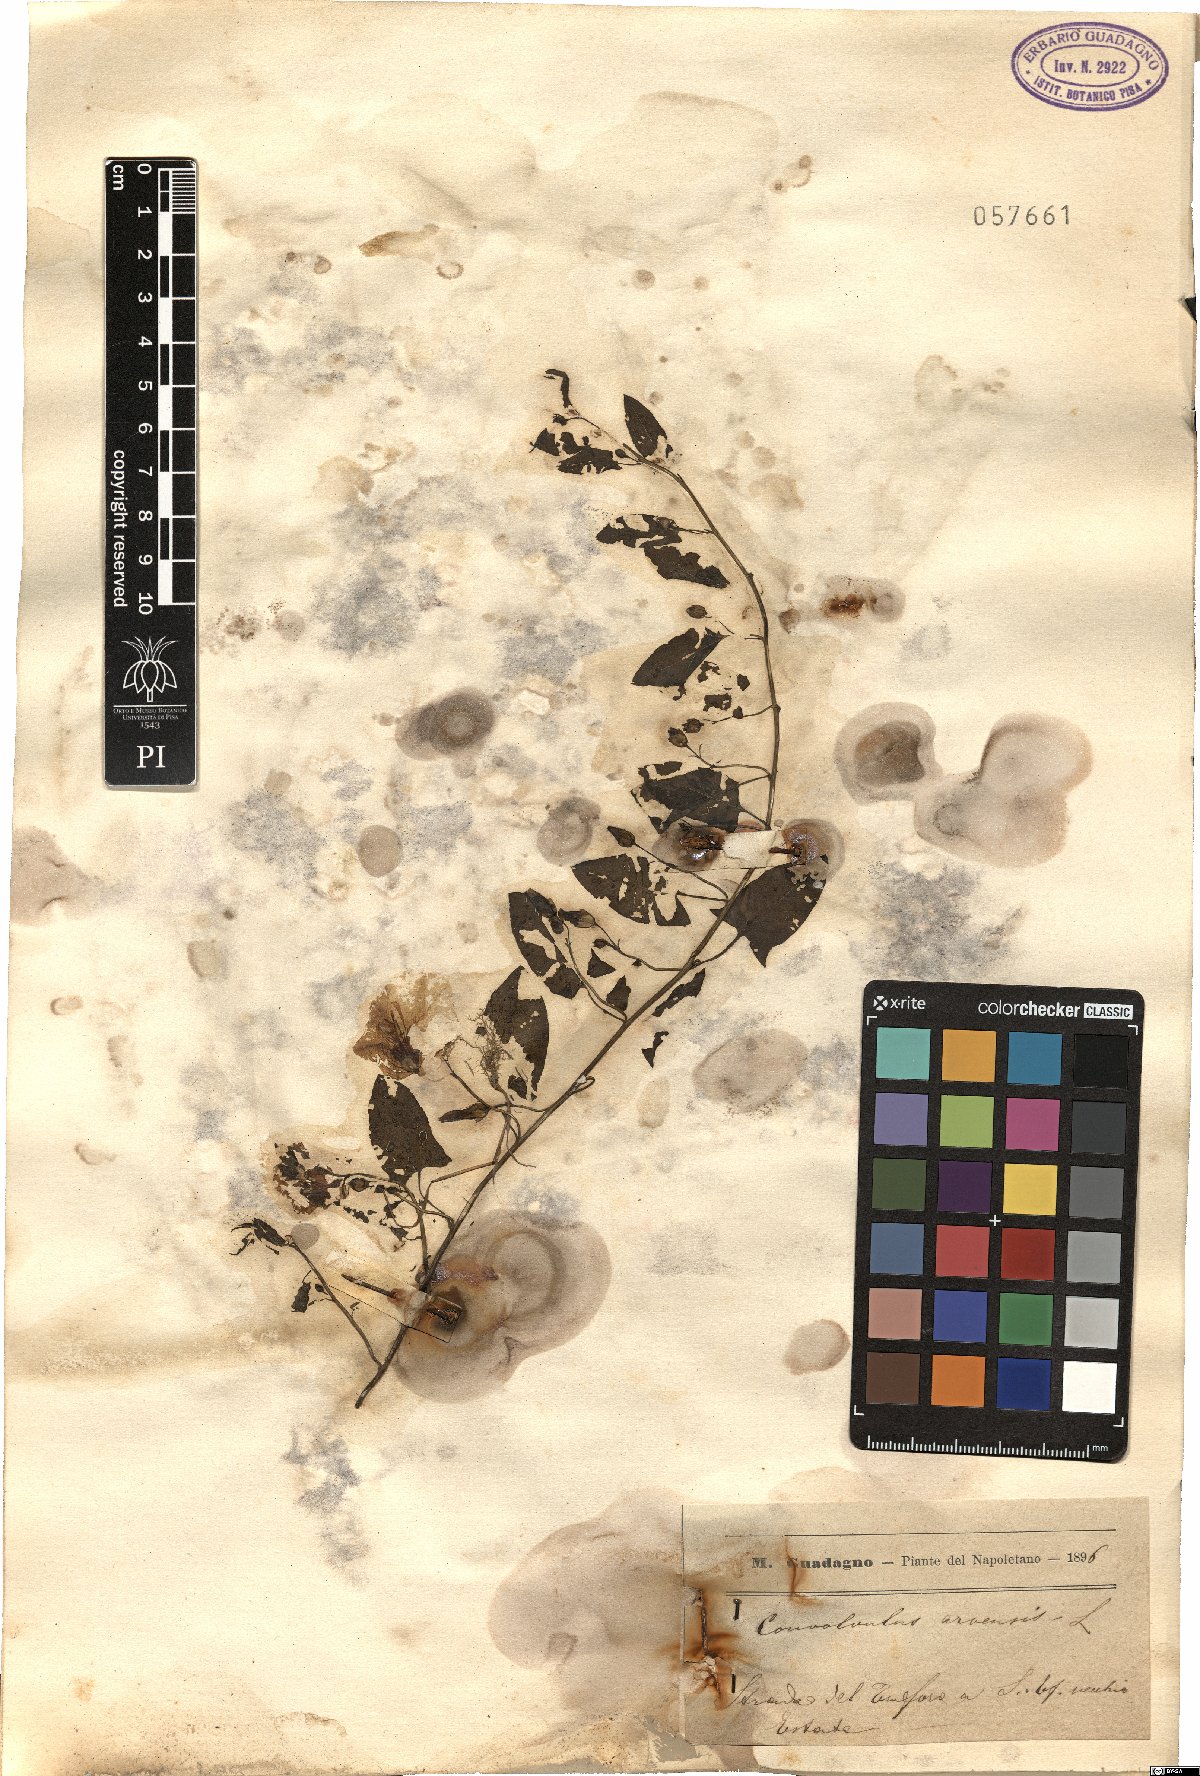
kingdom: Plantae
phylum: Tracheophyta
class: Magnoliopsida
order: Solanales
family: Convolvulaceae
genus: Convolvulus
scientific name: Convolvulus arvensis
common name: Field bindweed
